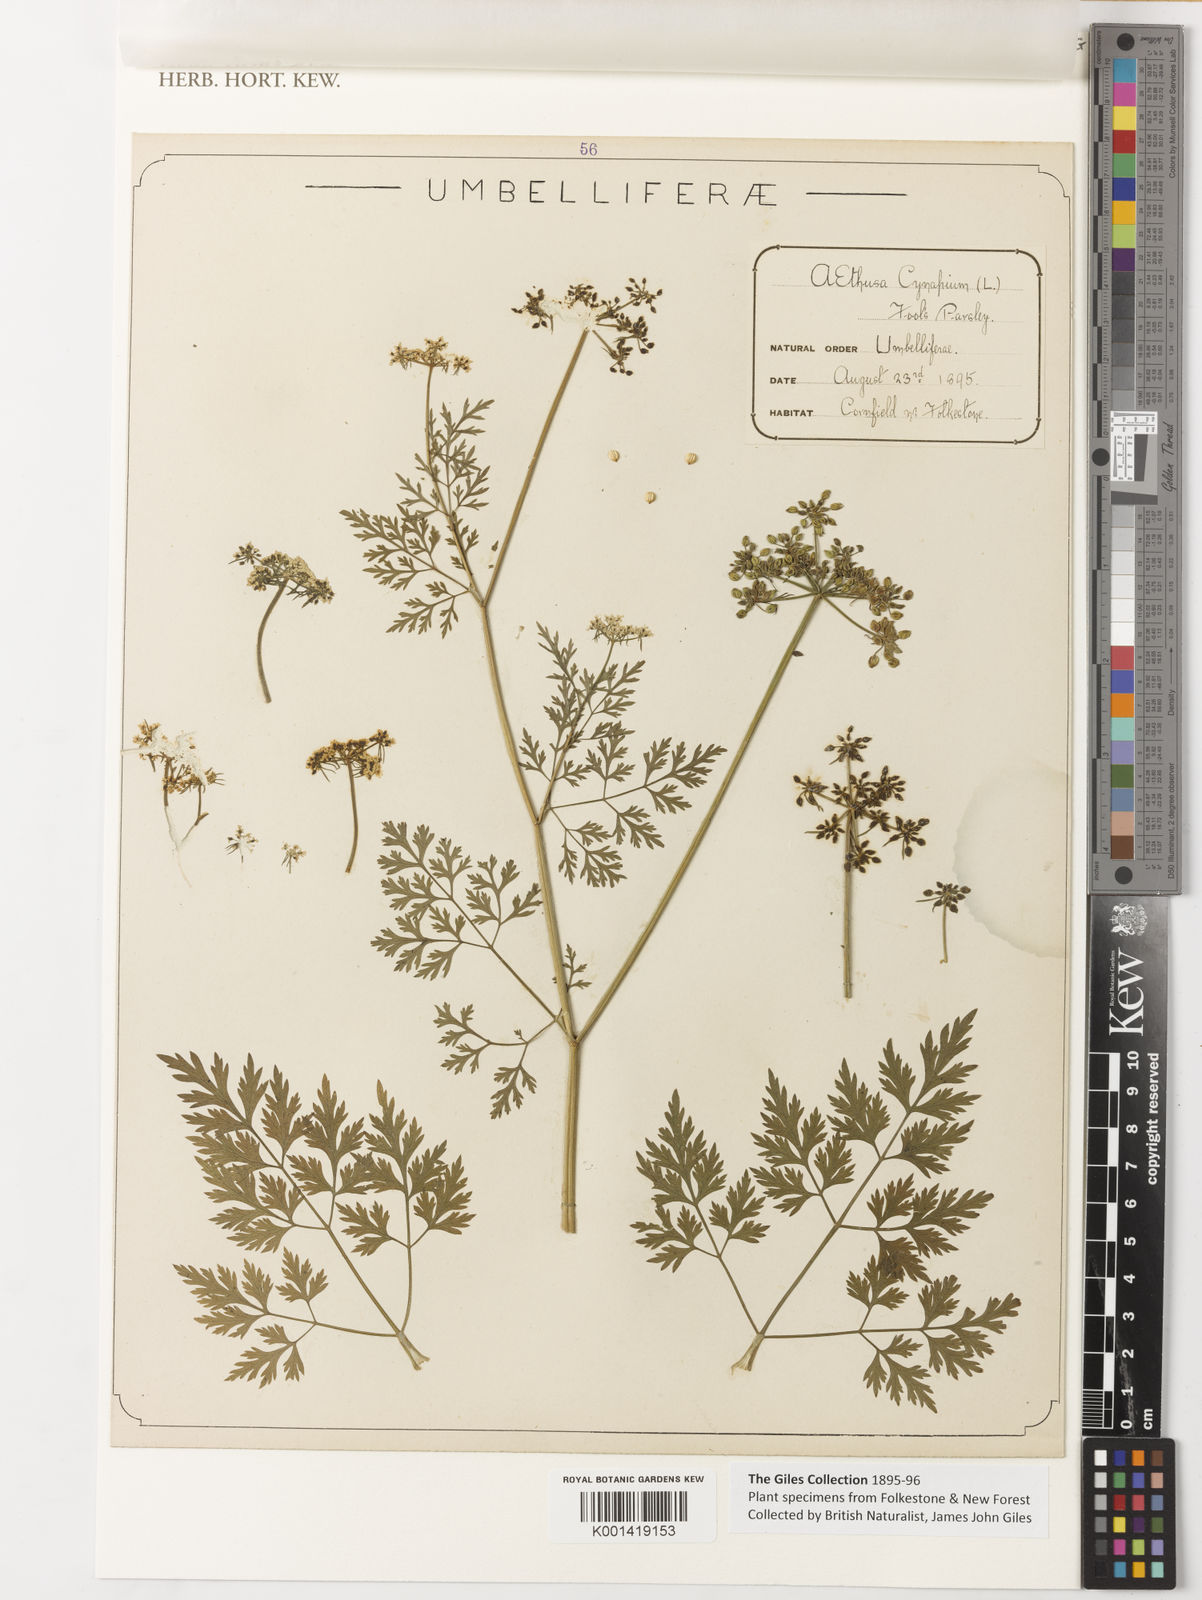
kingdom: Plantae
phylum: Tracheophyta
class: Magnoliopsida
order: Apiales
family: Apiaceae
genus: Aethusa
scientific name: Aethusa cynapium
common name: Fool's parsley
